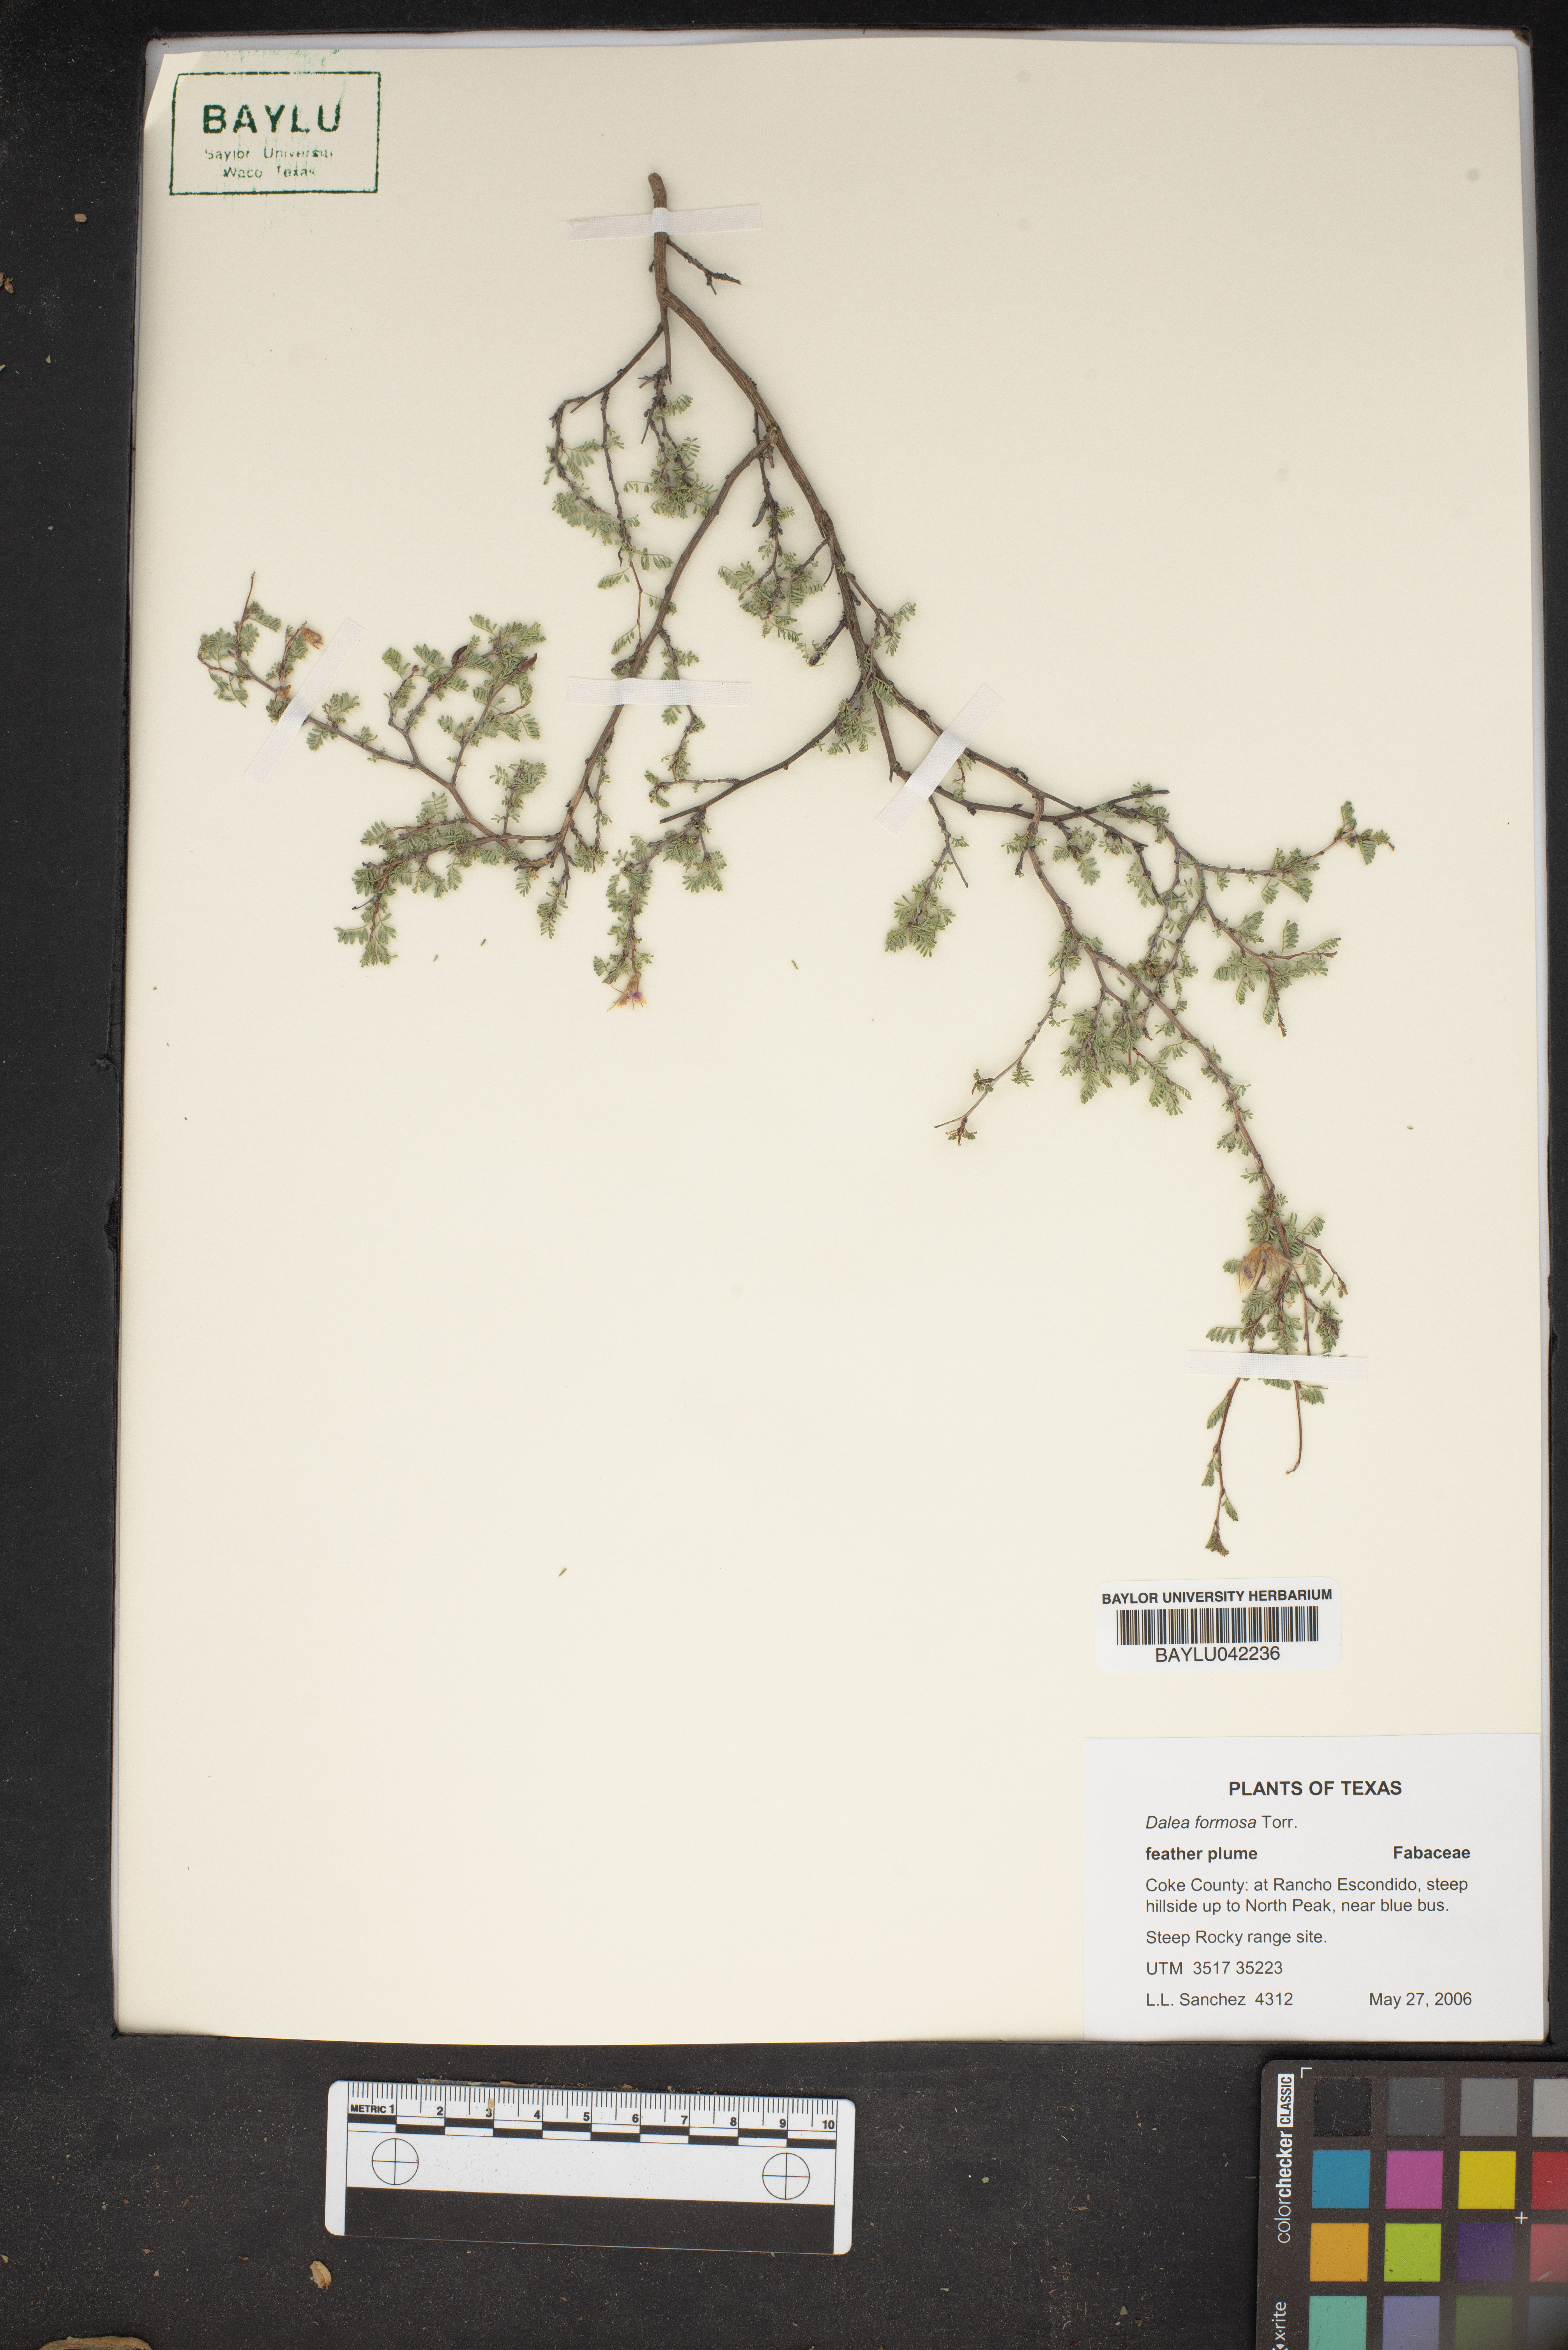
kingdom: Plantae
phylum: Tracheophyta
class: Magnoliopsida
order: Fabales
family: Fabaceae
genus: Dalea
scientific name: Dalea formosa
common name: Feather-plume dalea
